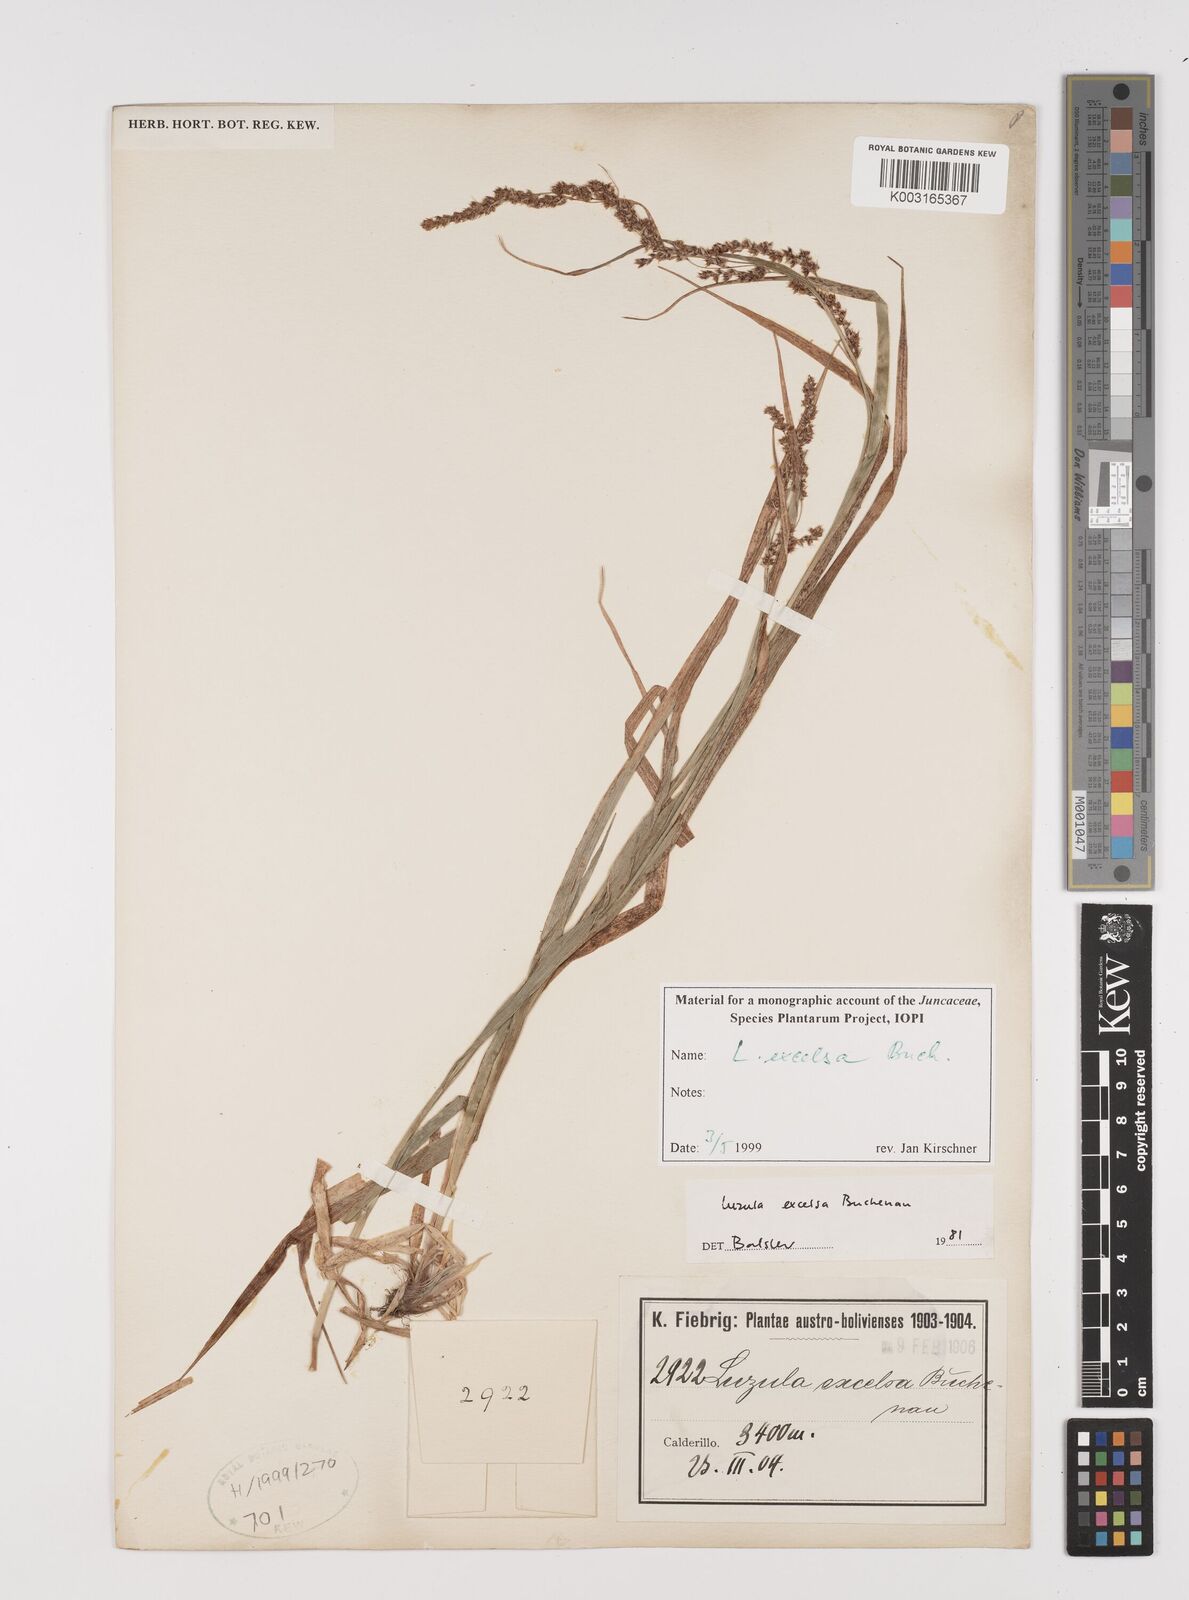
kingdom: Plantae
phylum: Tracheophyta
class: Liliopsida
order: Poales
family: Juncaceae
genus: Luzula
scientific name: Luzula excelsa
